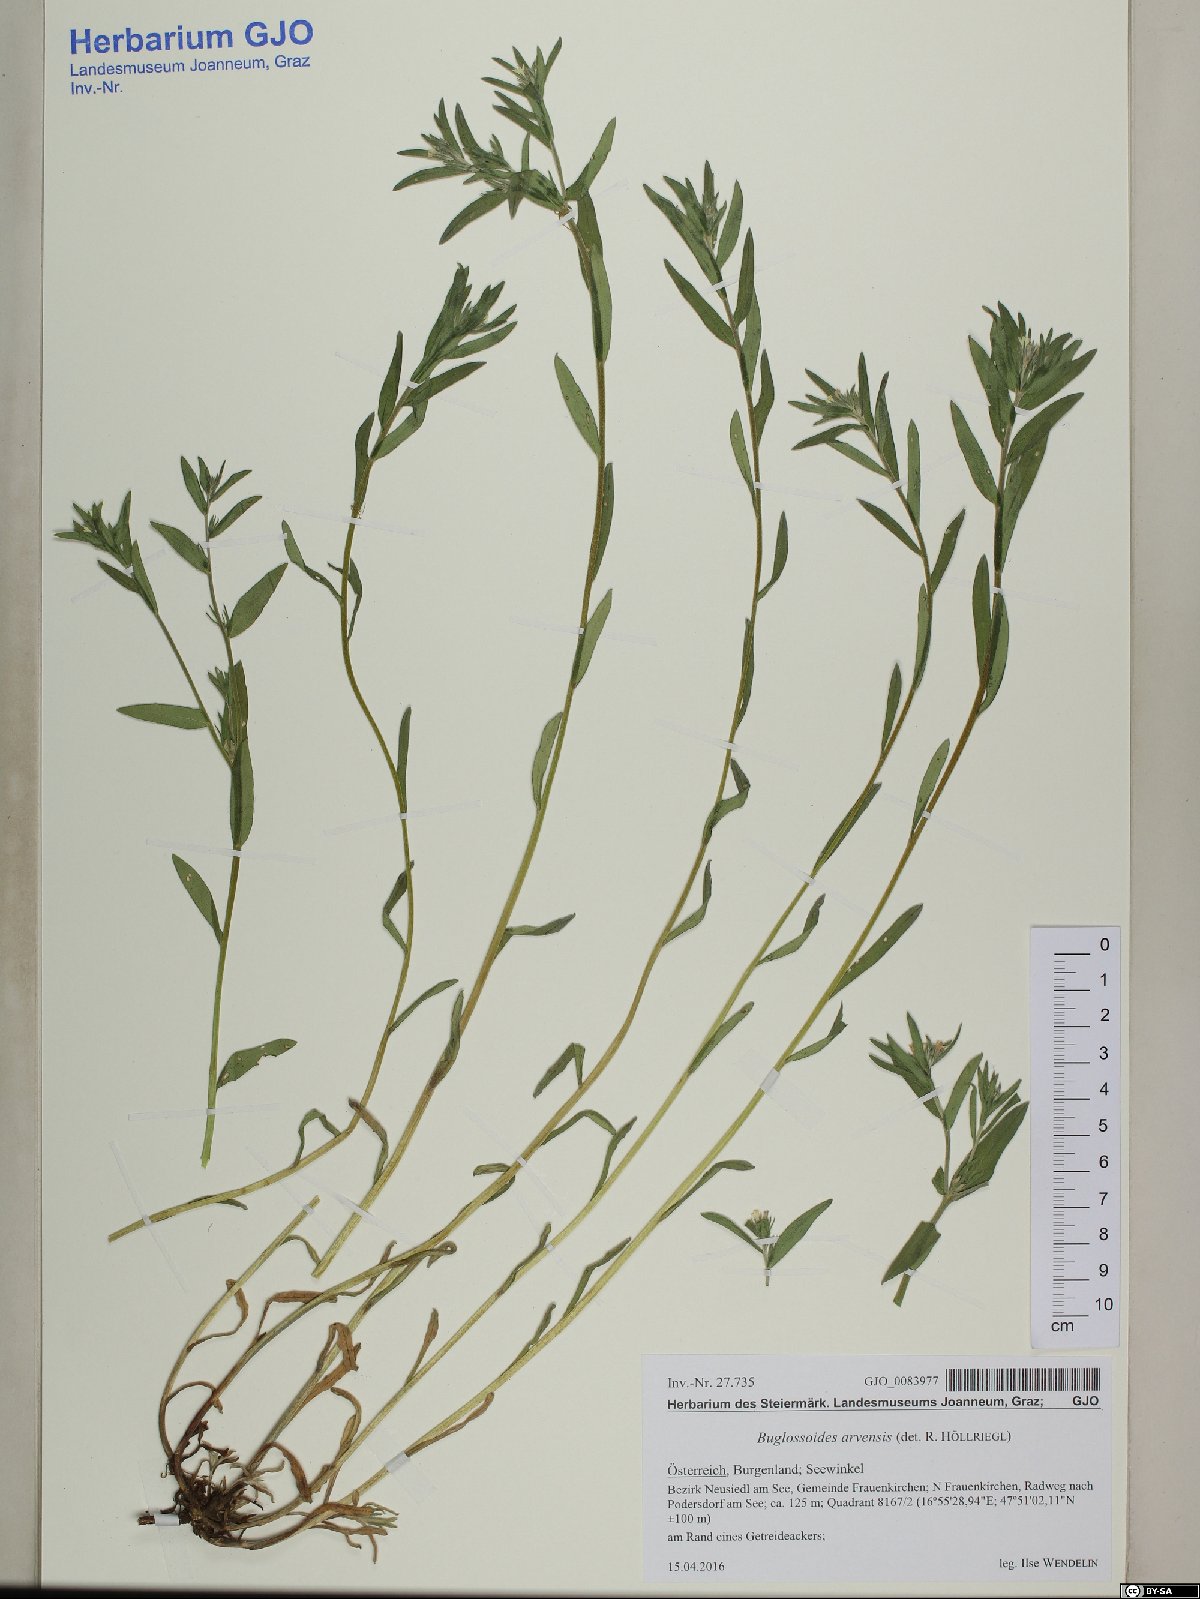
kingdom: Plantae
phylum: Tracheophyta
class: Magnoliopsida
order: Boraginales
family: Boraginaceae
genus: Buglossoides
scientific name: Buglossoides arvensis
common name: Corn gromwell
